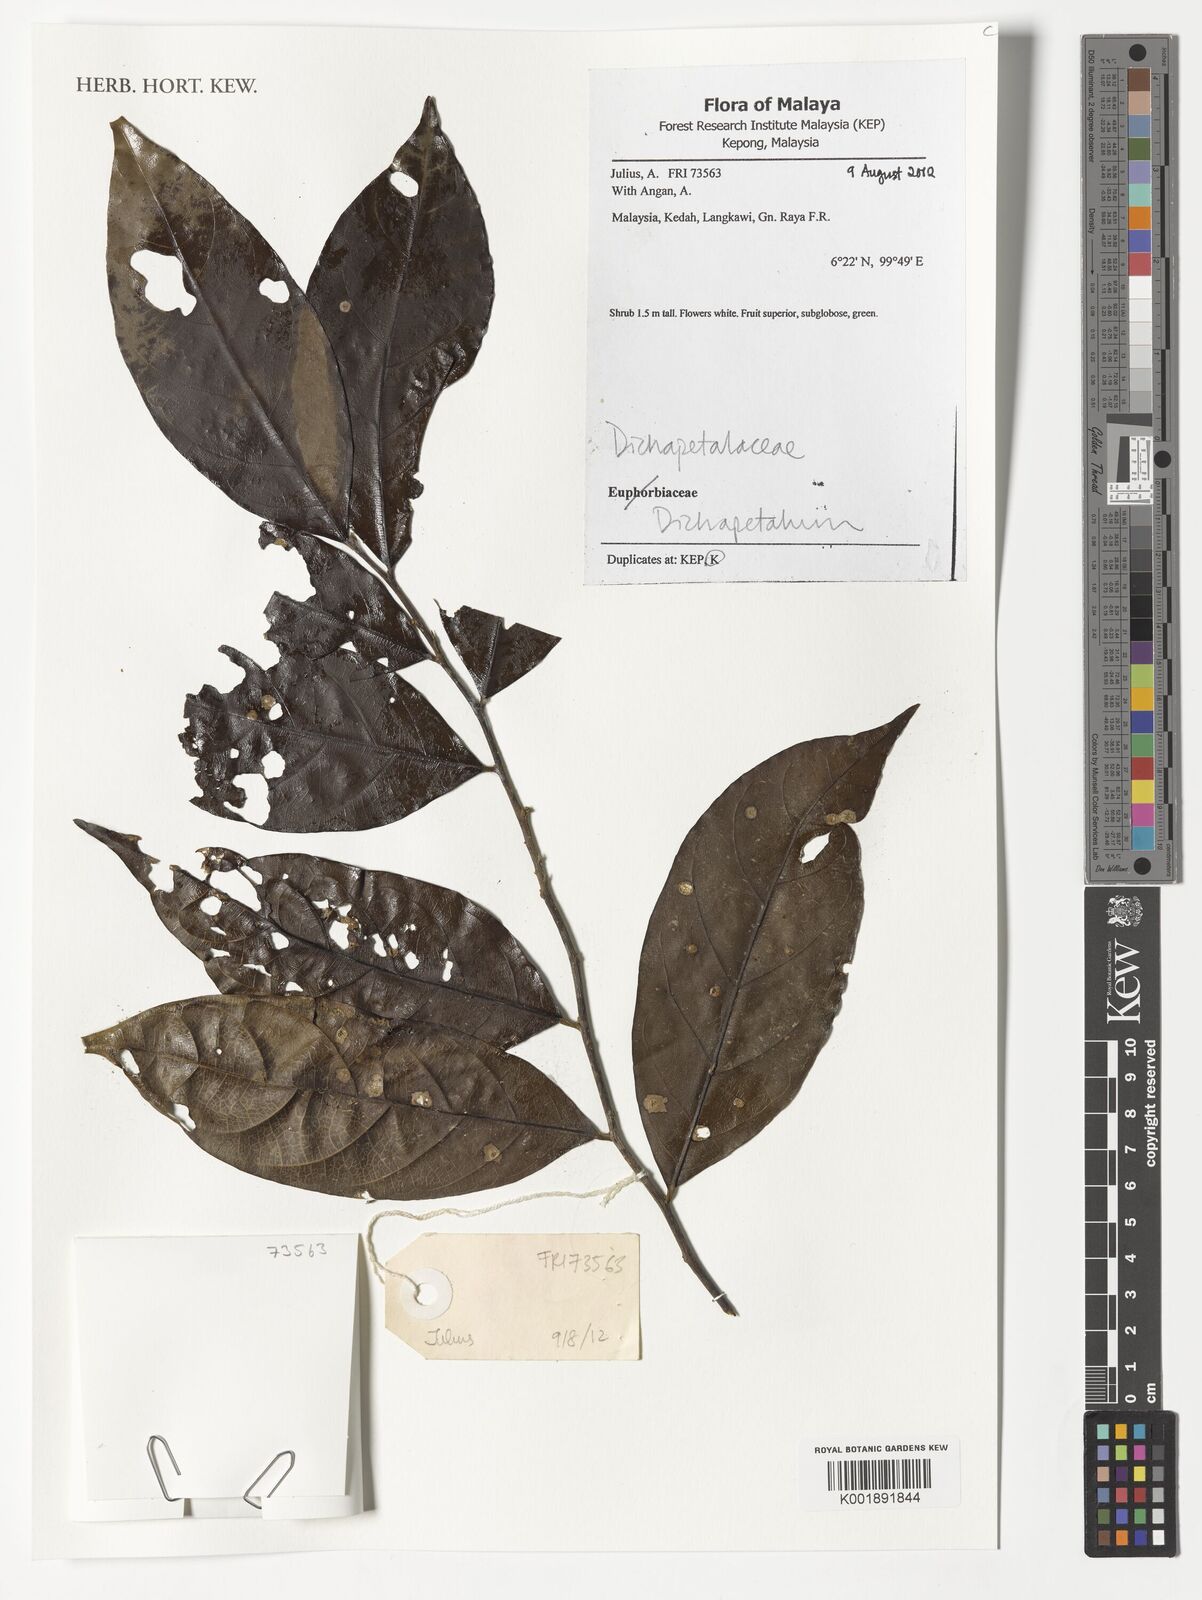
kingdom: Plantae
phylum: Tracheophyta
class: Magnoliopsida
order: Malpighiales
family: Dichapetalaceae
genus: Dichapetalum
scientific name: Dichapetalum
